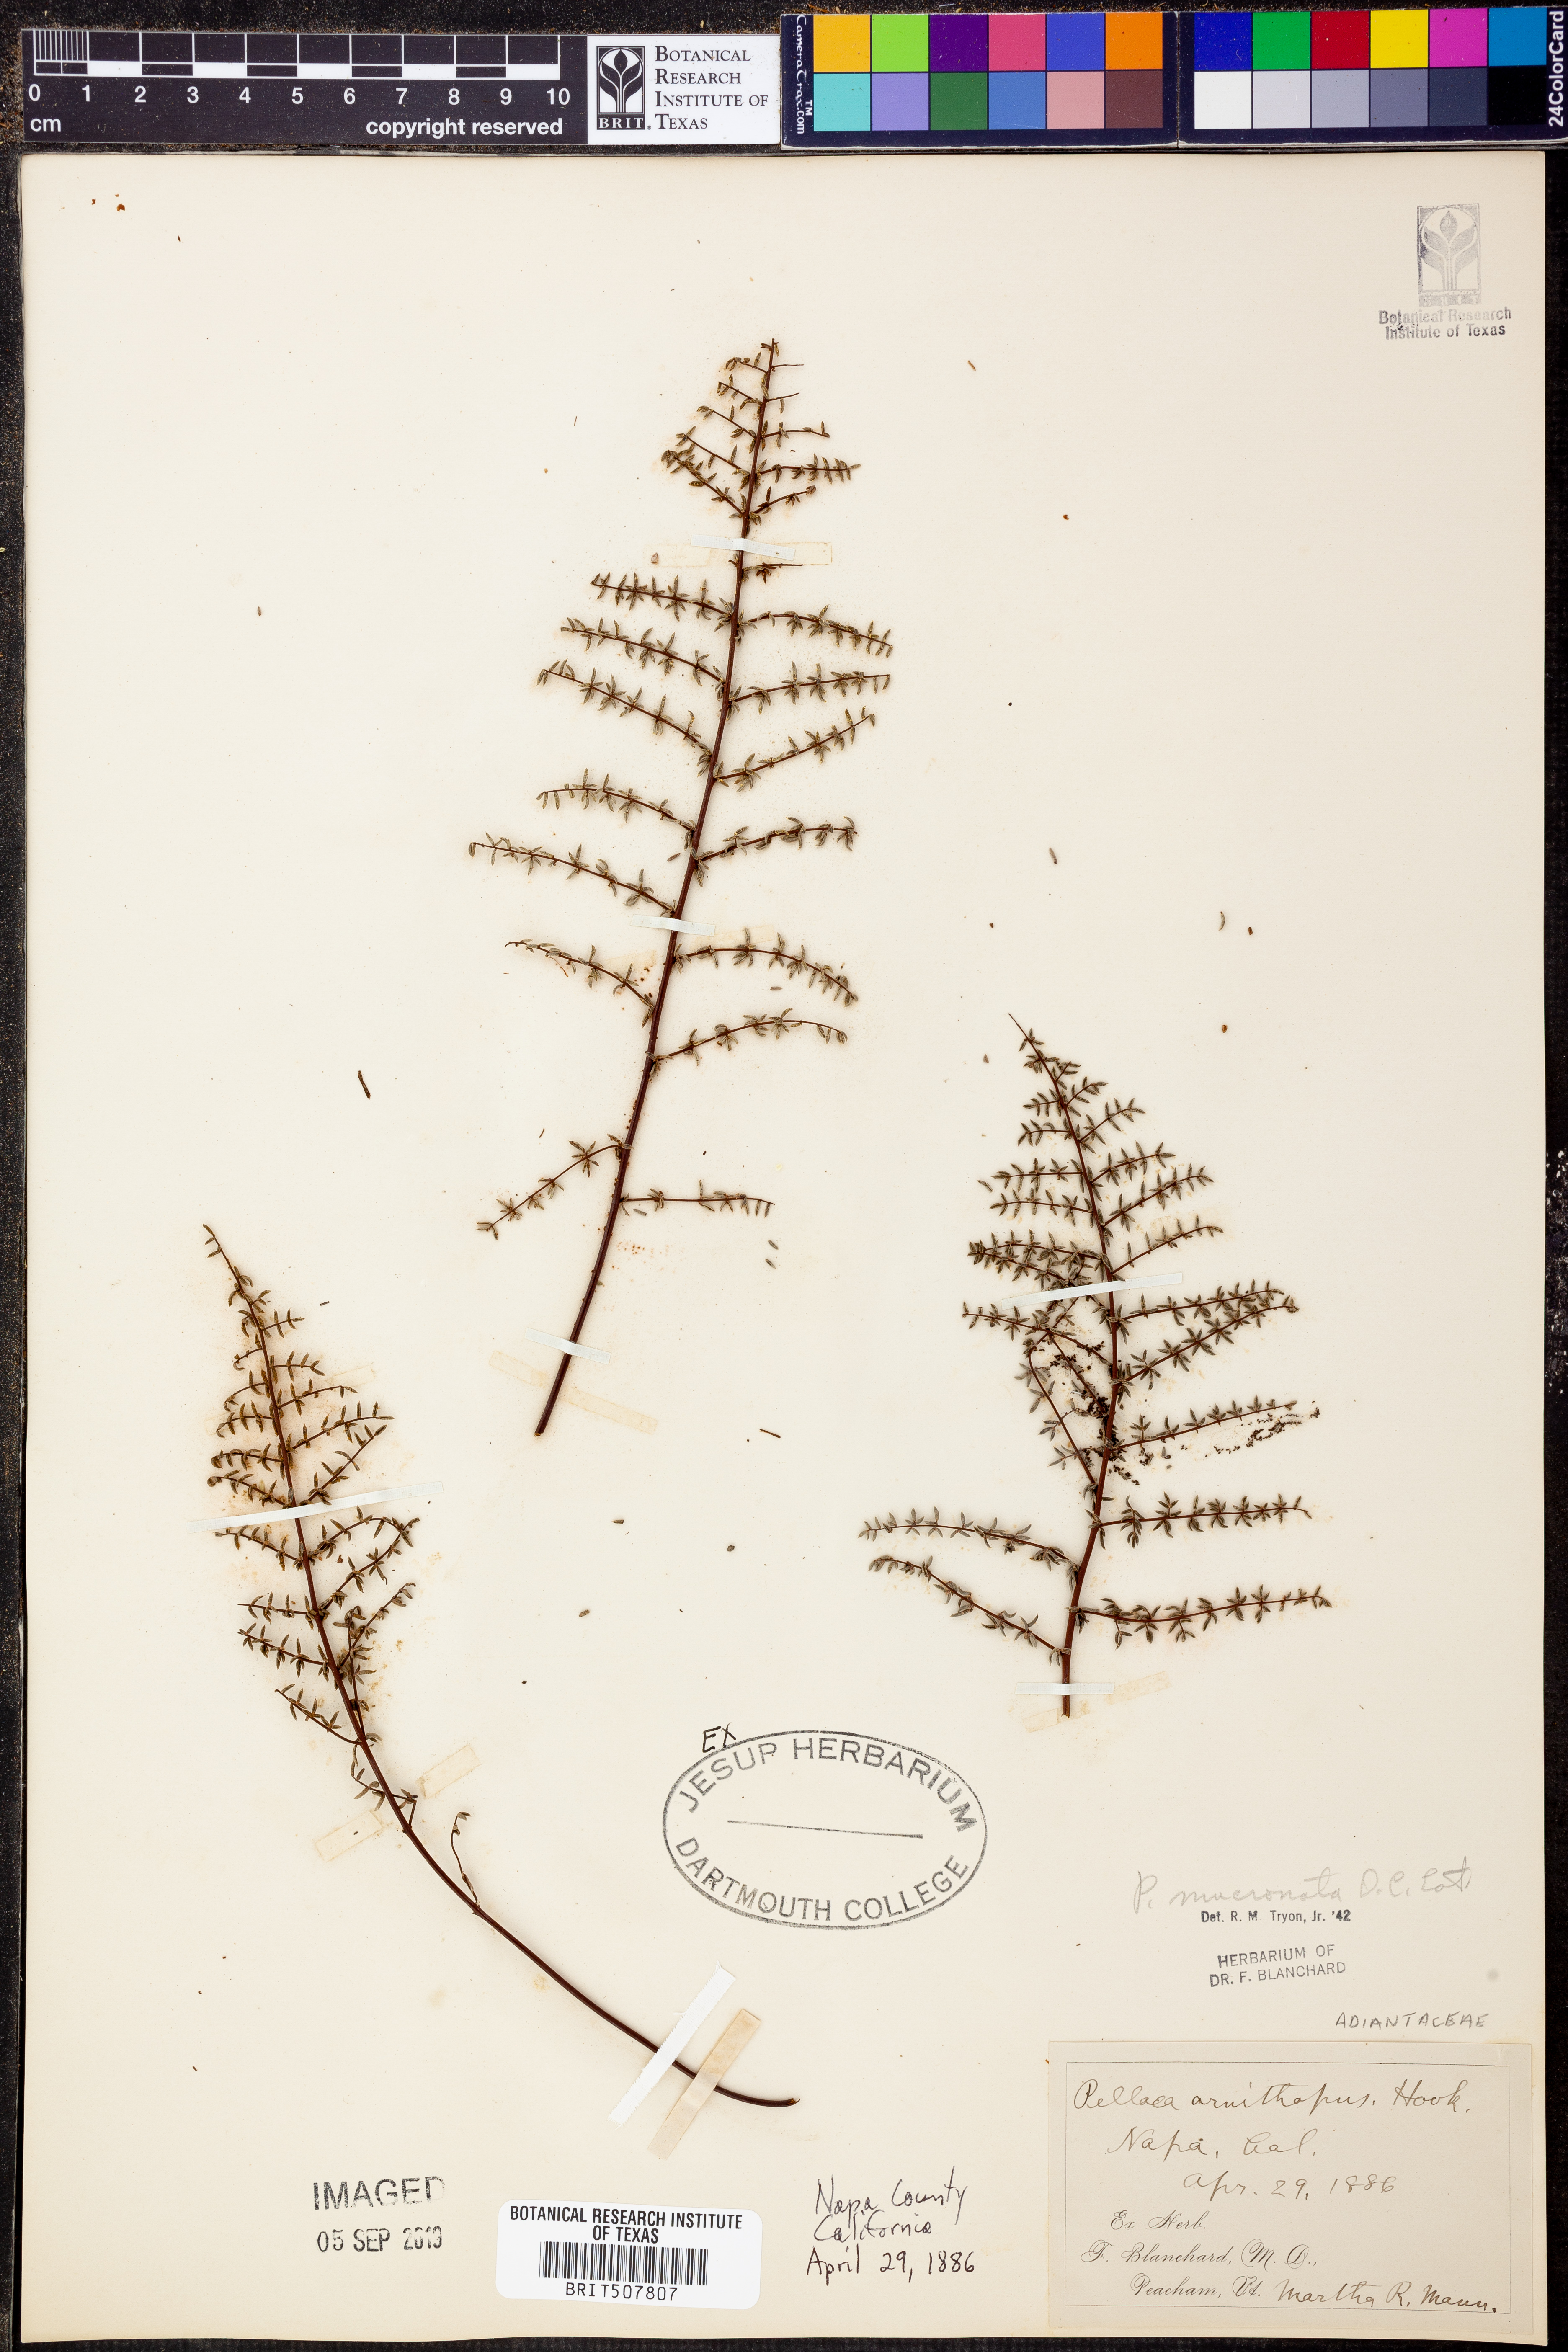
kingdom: Plantae
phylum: Tracheophyta
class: Polypodiopsida
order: Polypodiales
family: Pteridaceae
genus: Pellaea
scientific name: Pellaea atropurpurea
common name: Hairy cliffbrake
